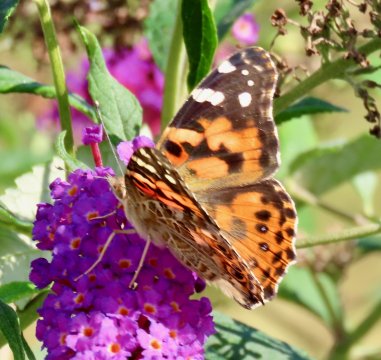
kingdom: Animalia
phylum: Arthropoda
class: Insecta
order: Lepidoptera
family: Nymphalidae
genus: Vanessa
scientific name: Vanessa cardui
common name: Painted Lady
